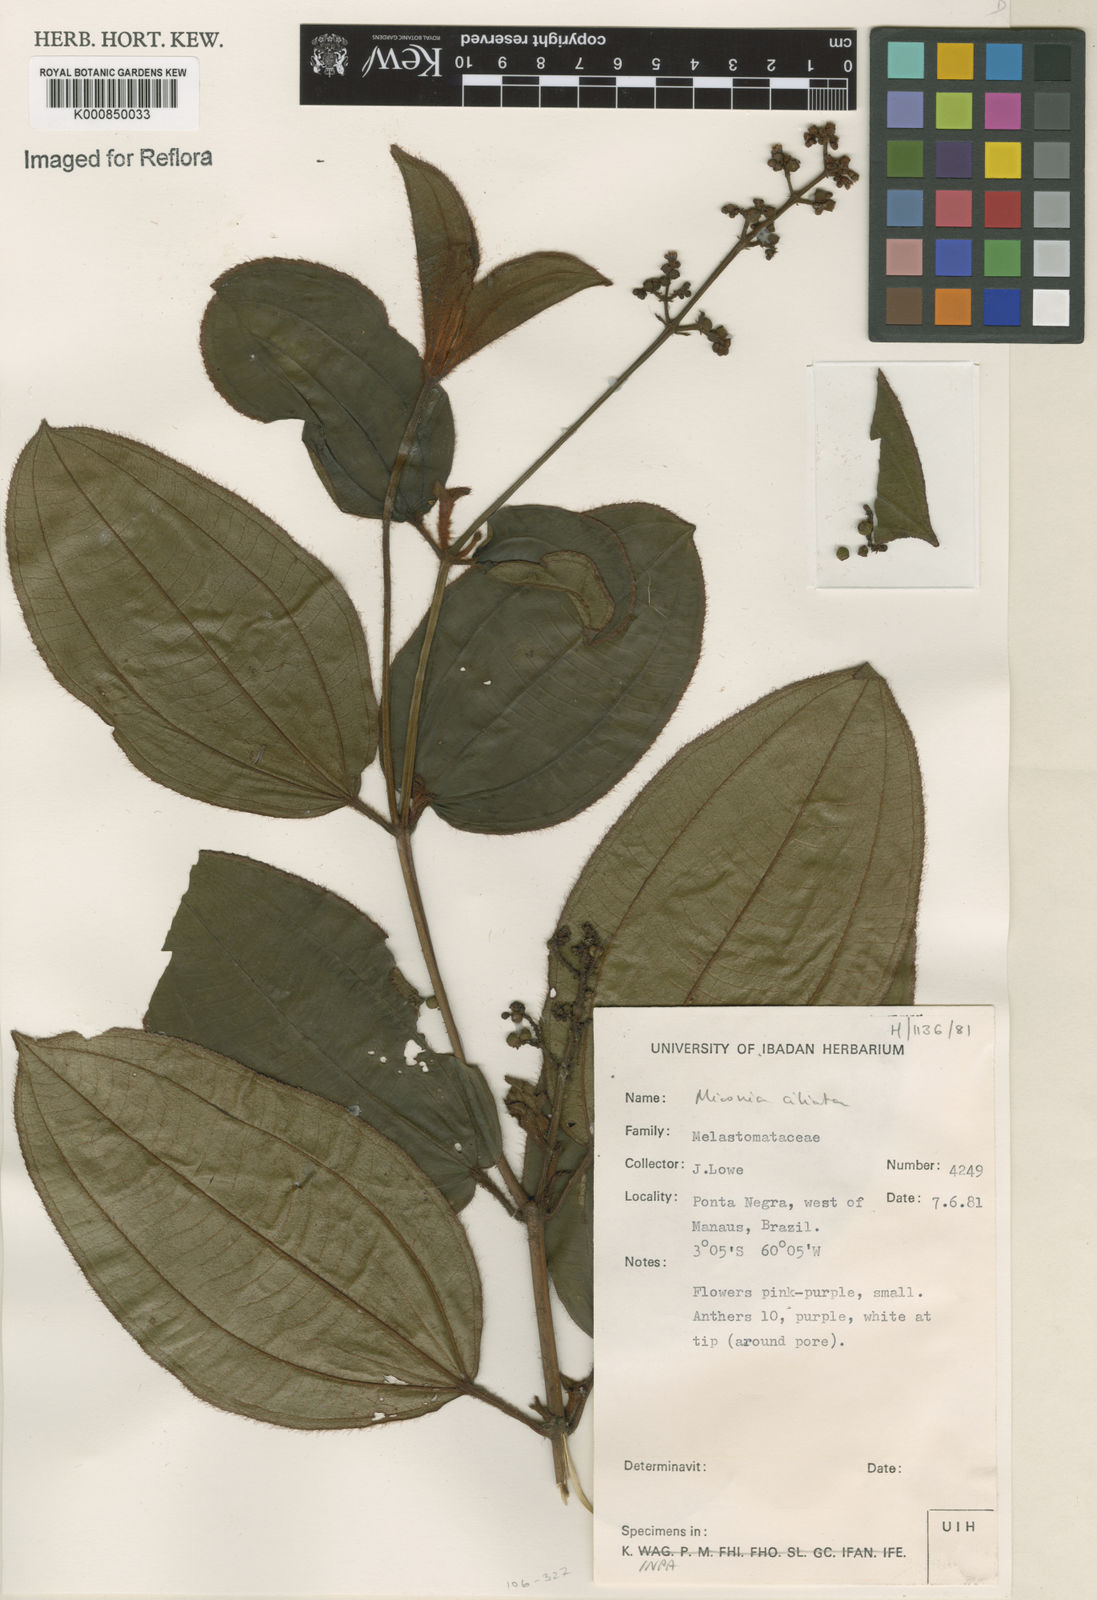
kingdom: Plantae
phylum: Tracheophyta
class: Magnoliopsida
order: Myrtales
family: Melastomataceae
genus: Miconia
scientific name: Miconia ciliata
